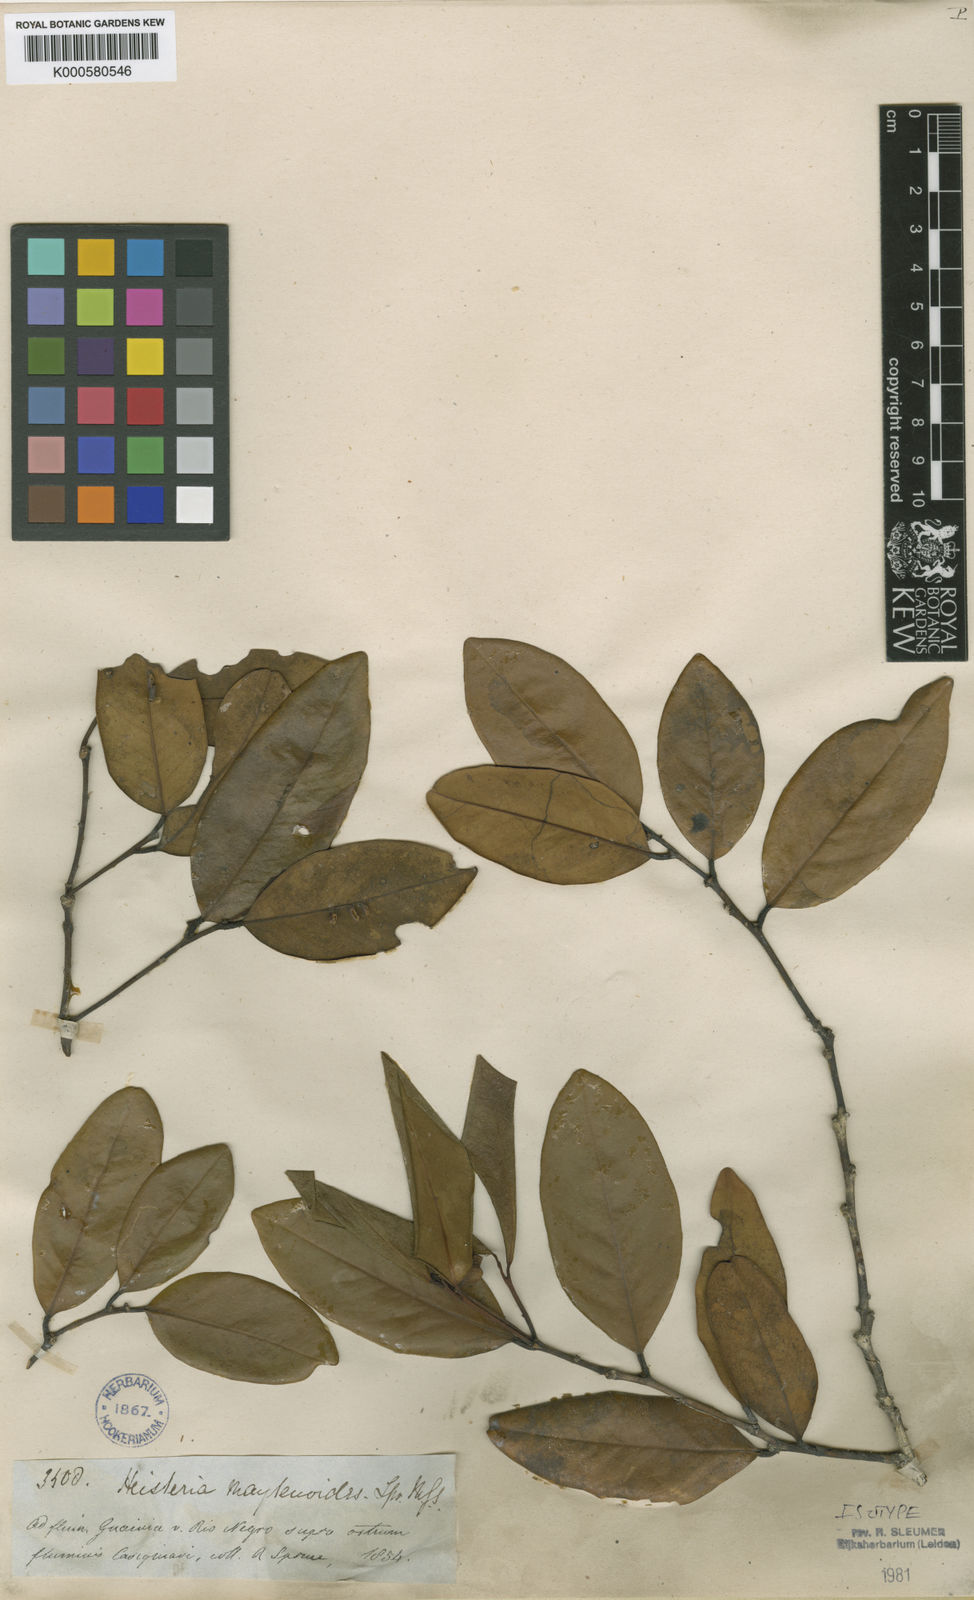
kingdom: Plantae
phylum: Tracheophyta
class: Magnoliopsida
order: Santalales
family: Erythropalaceae
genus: Heisteria
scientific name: Heisteria maytenoides
